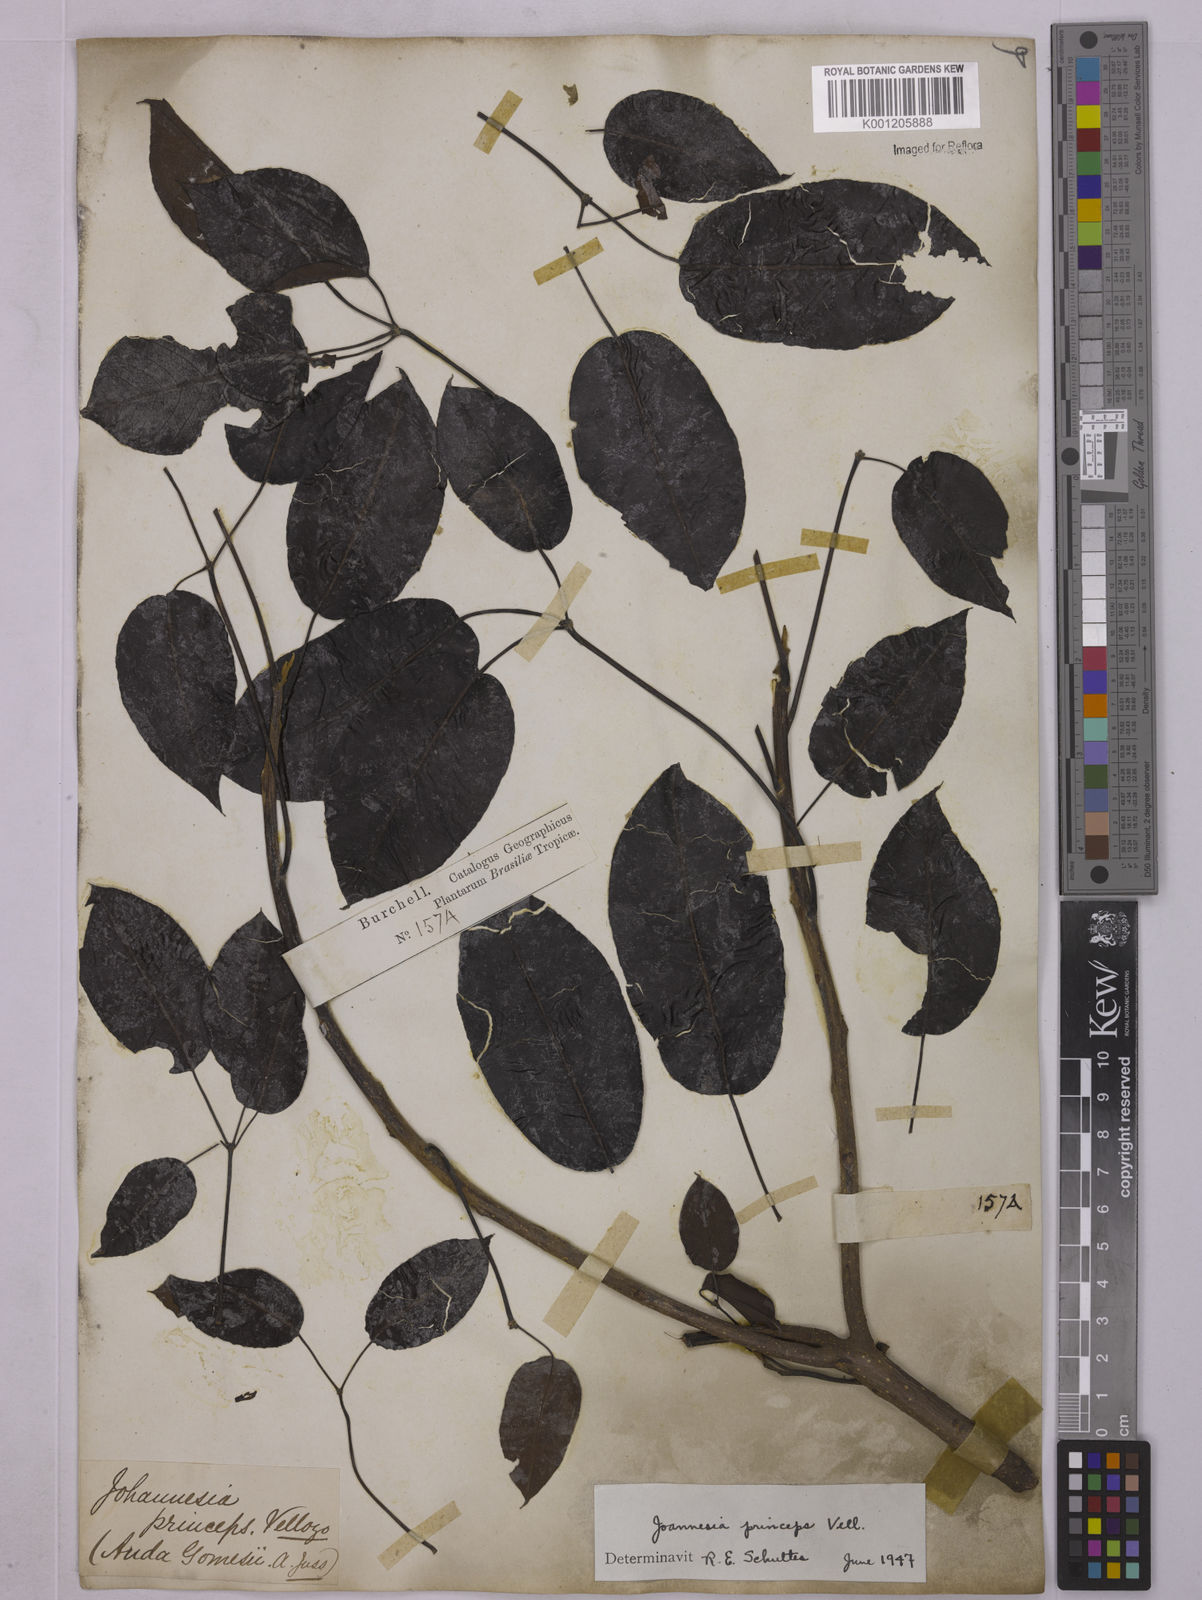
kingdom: Plantae
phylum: Tracheophyta
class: Magnoliopsida
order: Malpighiales
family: Euphorbiaceae
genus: Joannesia
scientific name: Joannesia princeps
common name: Arara nut-tree
